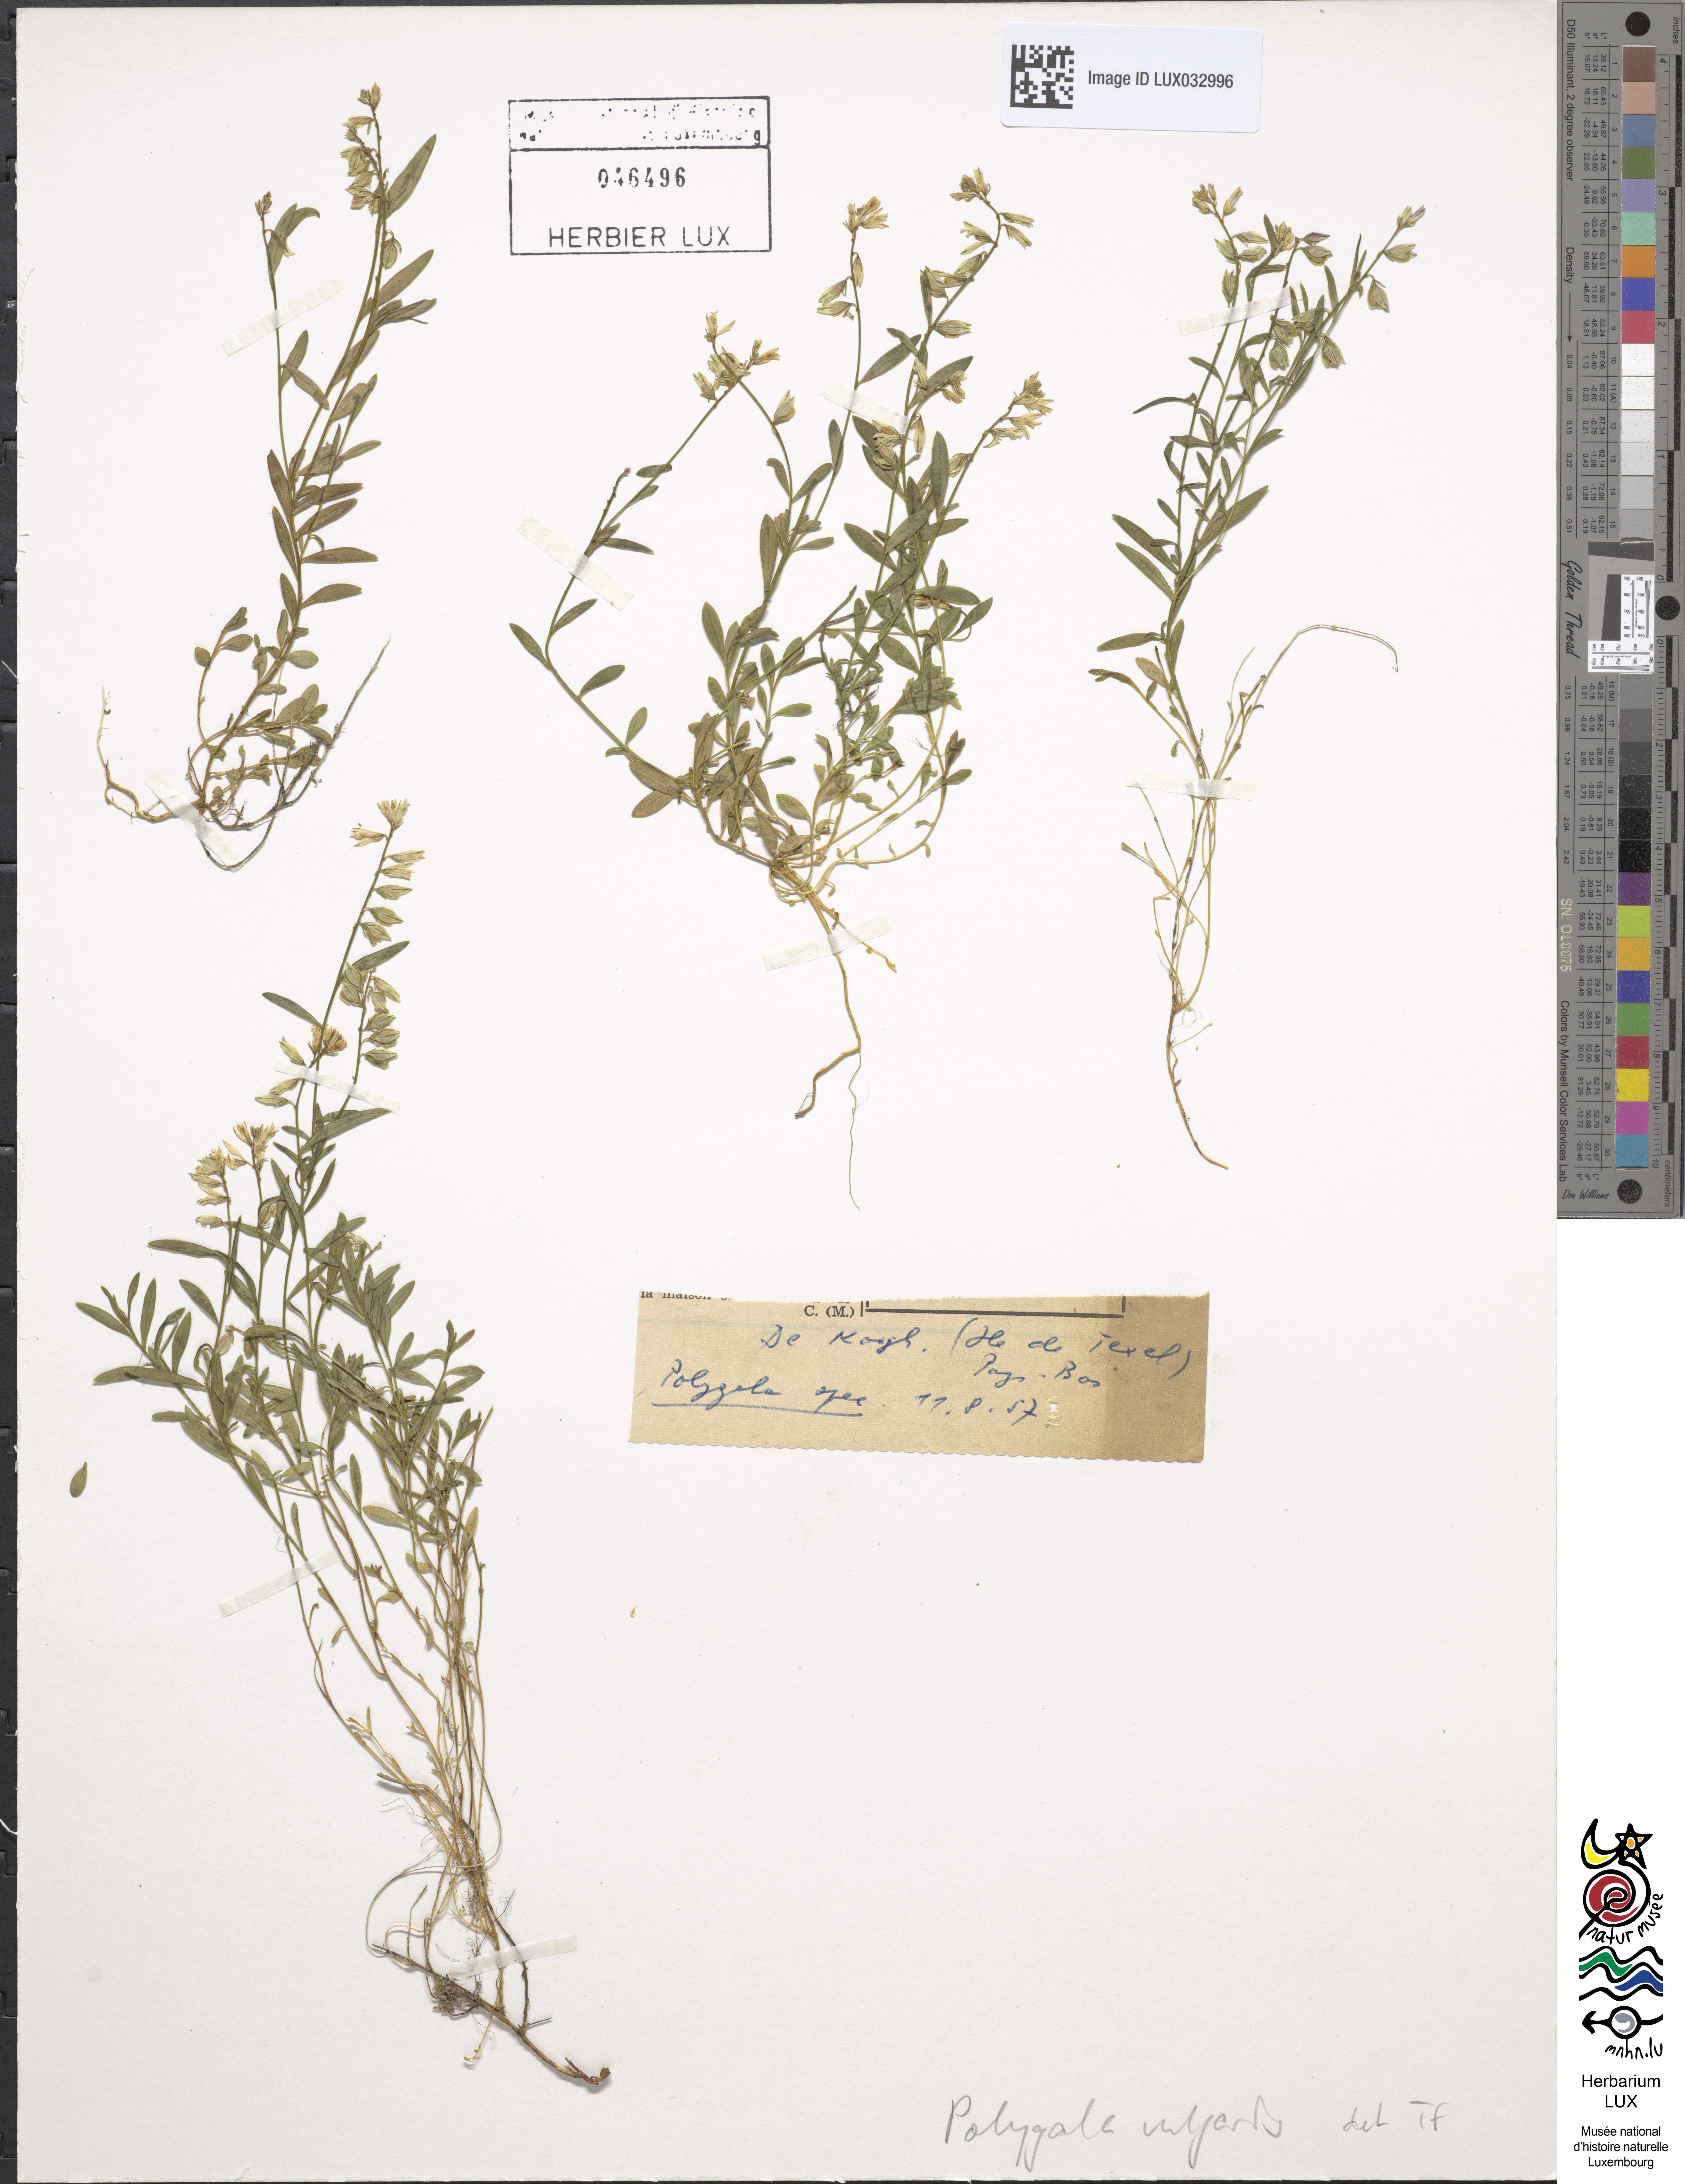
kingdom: Plantae
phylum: Tracheophyta
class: Magnoliopsida
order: Fabales
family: Polygalaceae
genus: Polygala
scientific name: Polygala vulgaris
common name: Common milkwort
